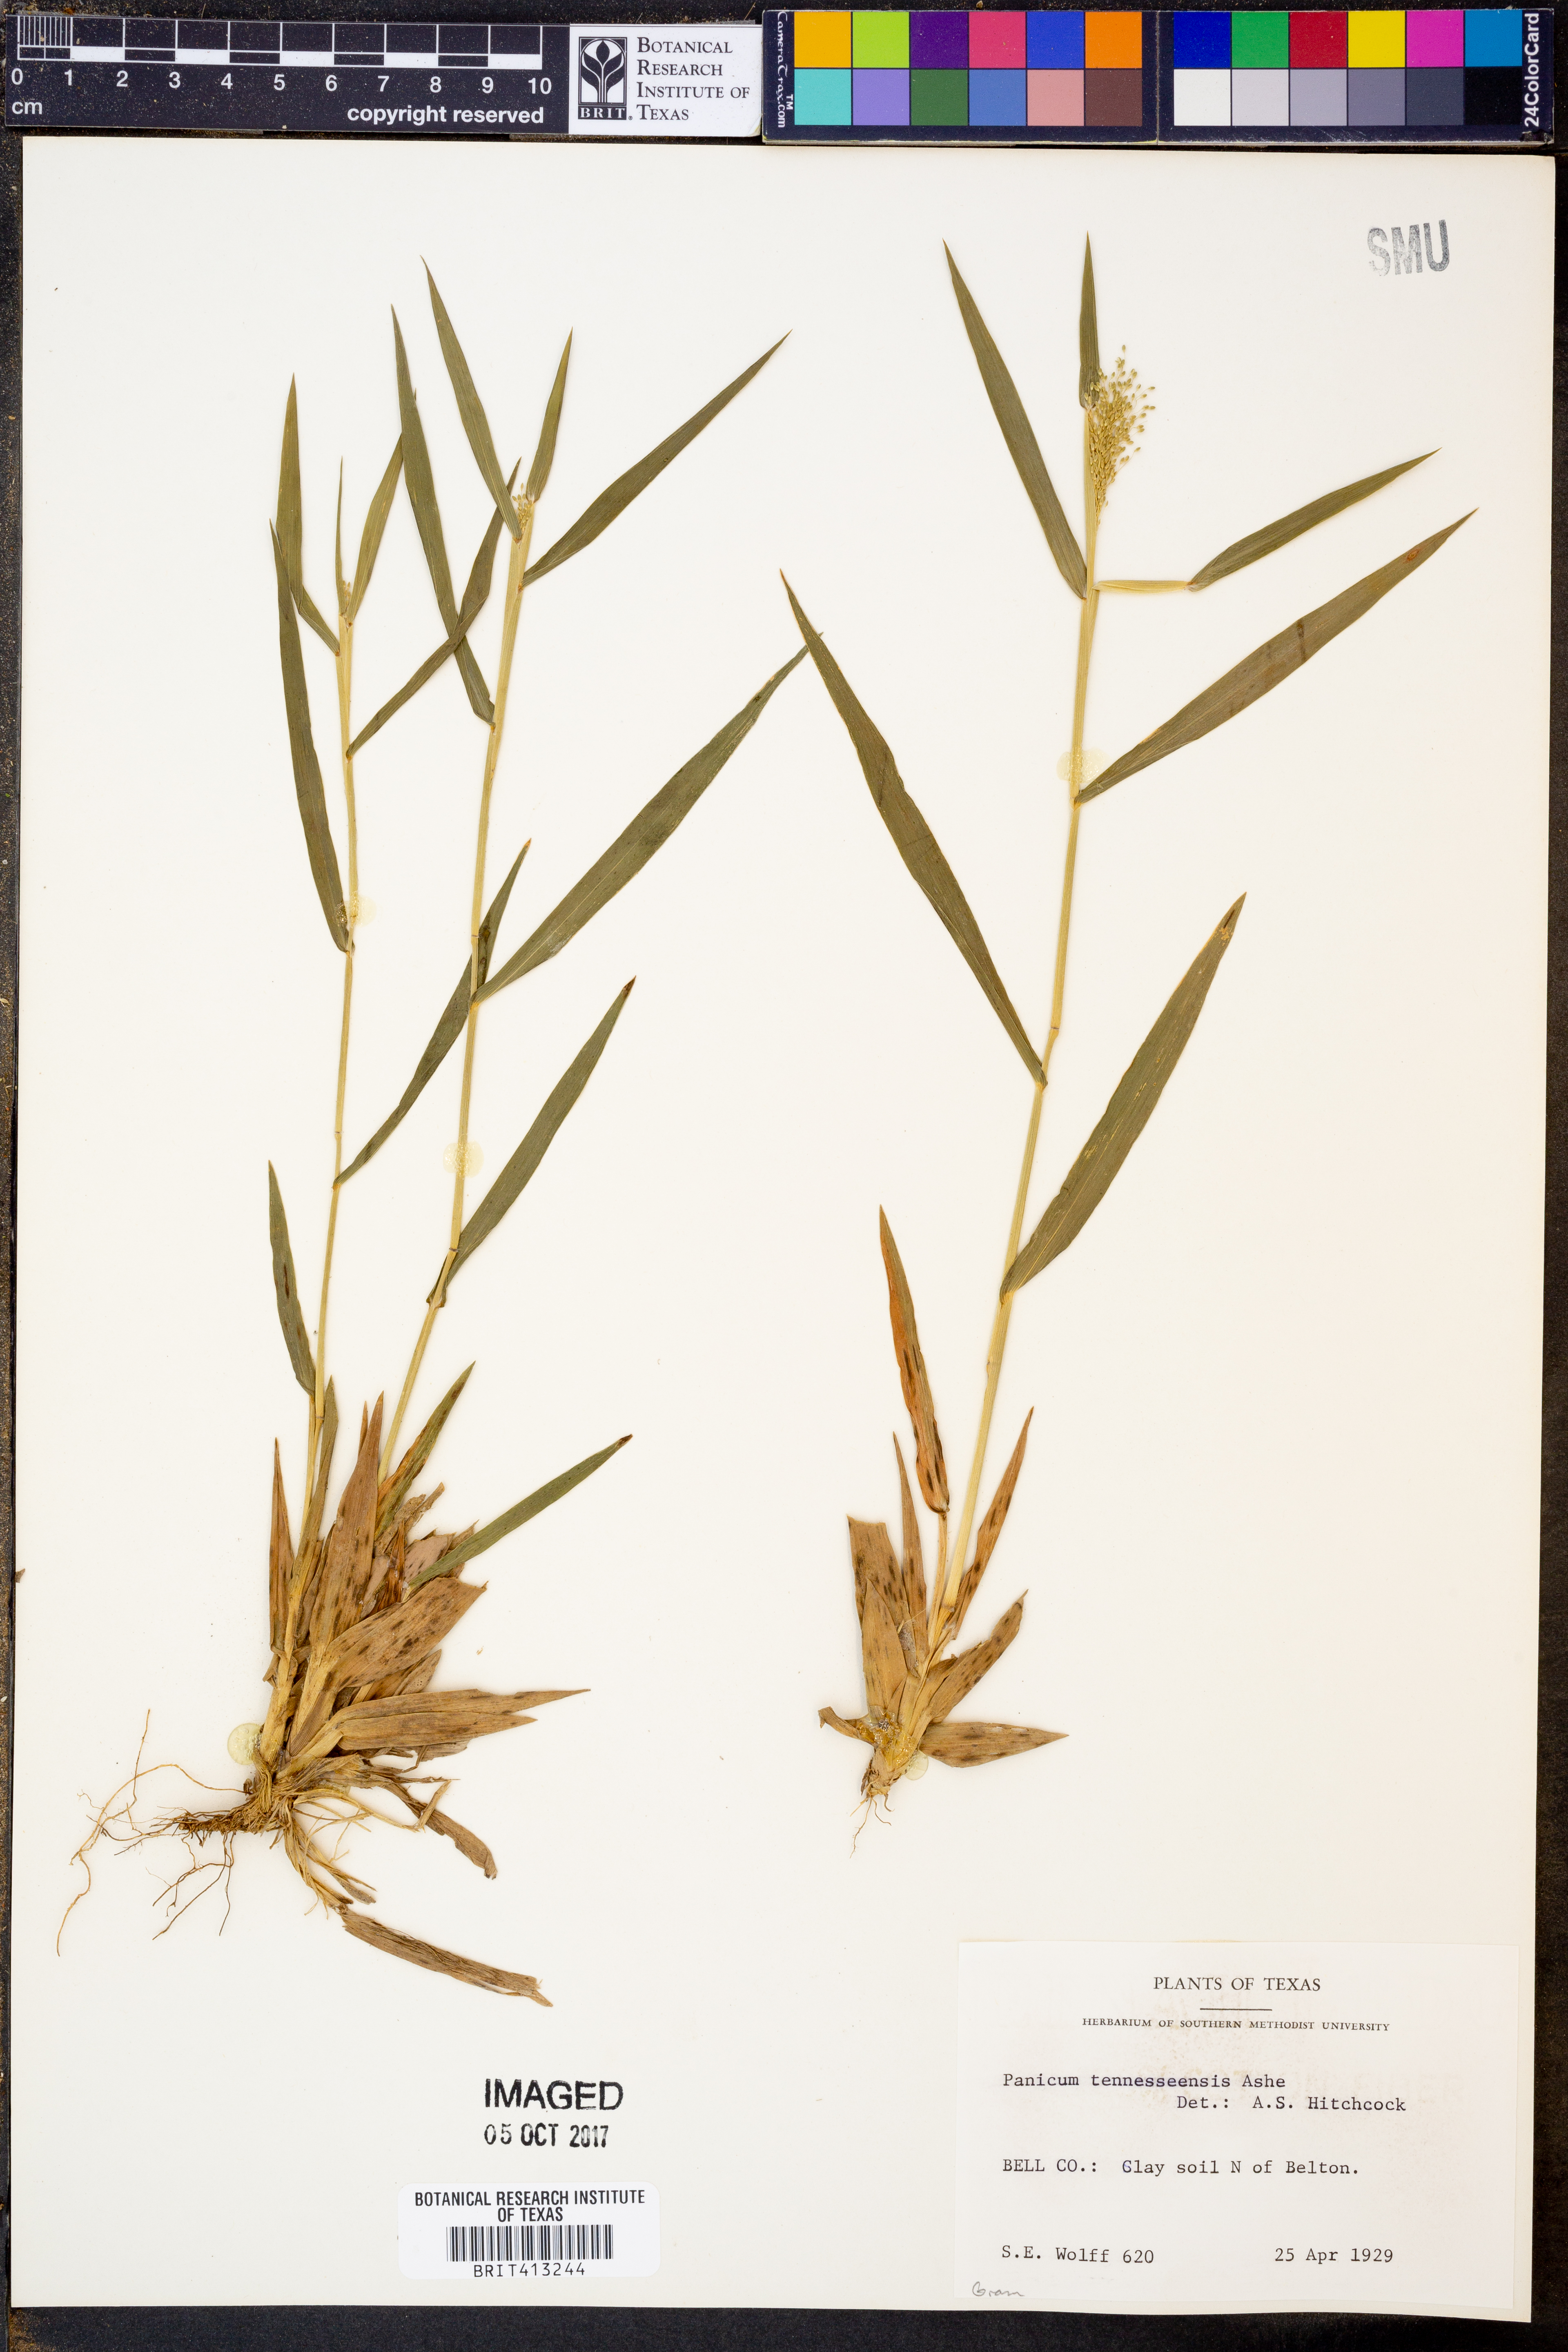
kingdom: Plantae
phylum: Tracheophyta
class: Liliopsida
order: Poales
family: Poaceae
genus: Dichanthelium
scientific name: Dichanthelium lanuginosum
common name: Woolly panicgrass
